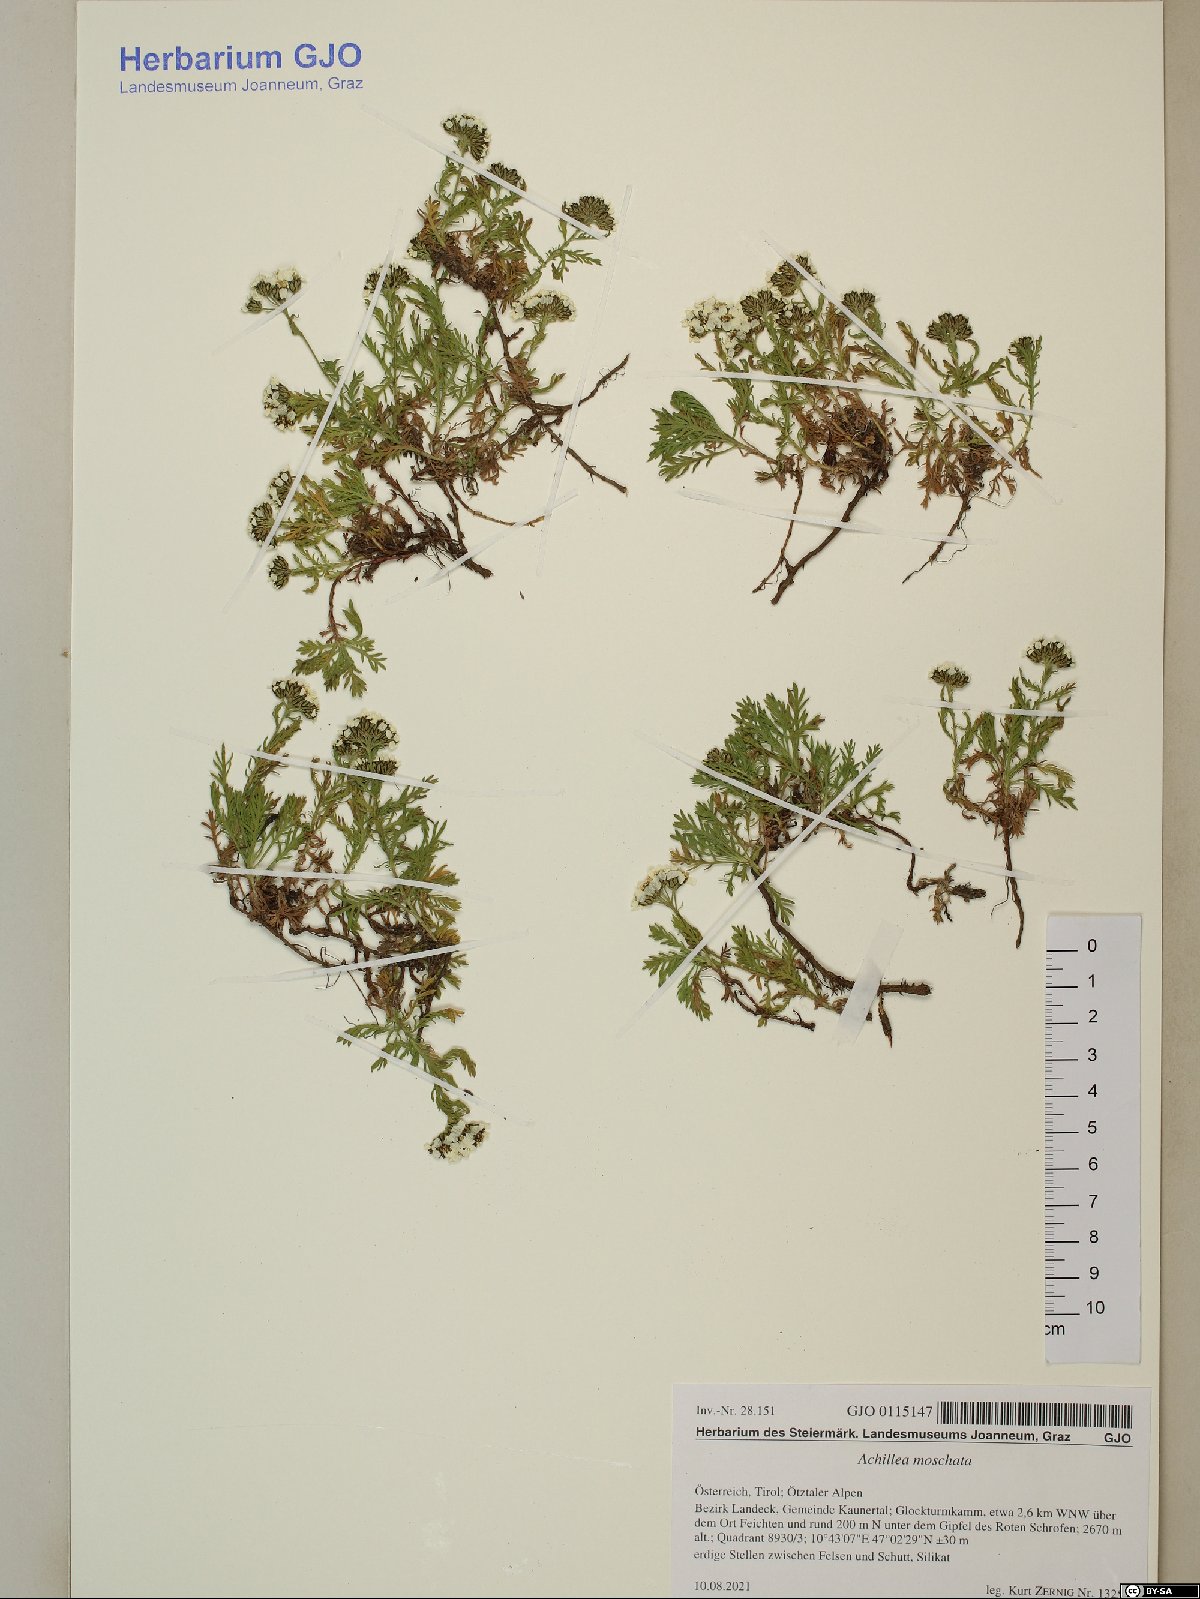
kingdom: Plantae
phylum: Tracheophyta
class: Magnoliopsida
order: Asterales
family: Asteraceae
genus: Achillea
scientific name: Achillea erba-rotta
